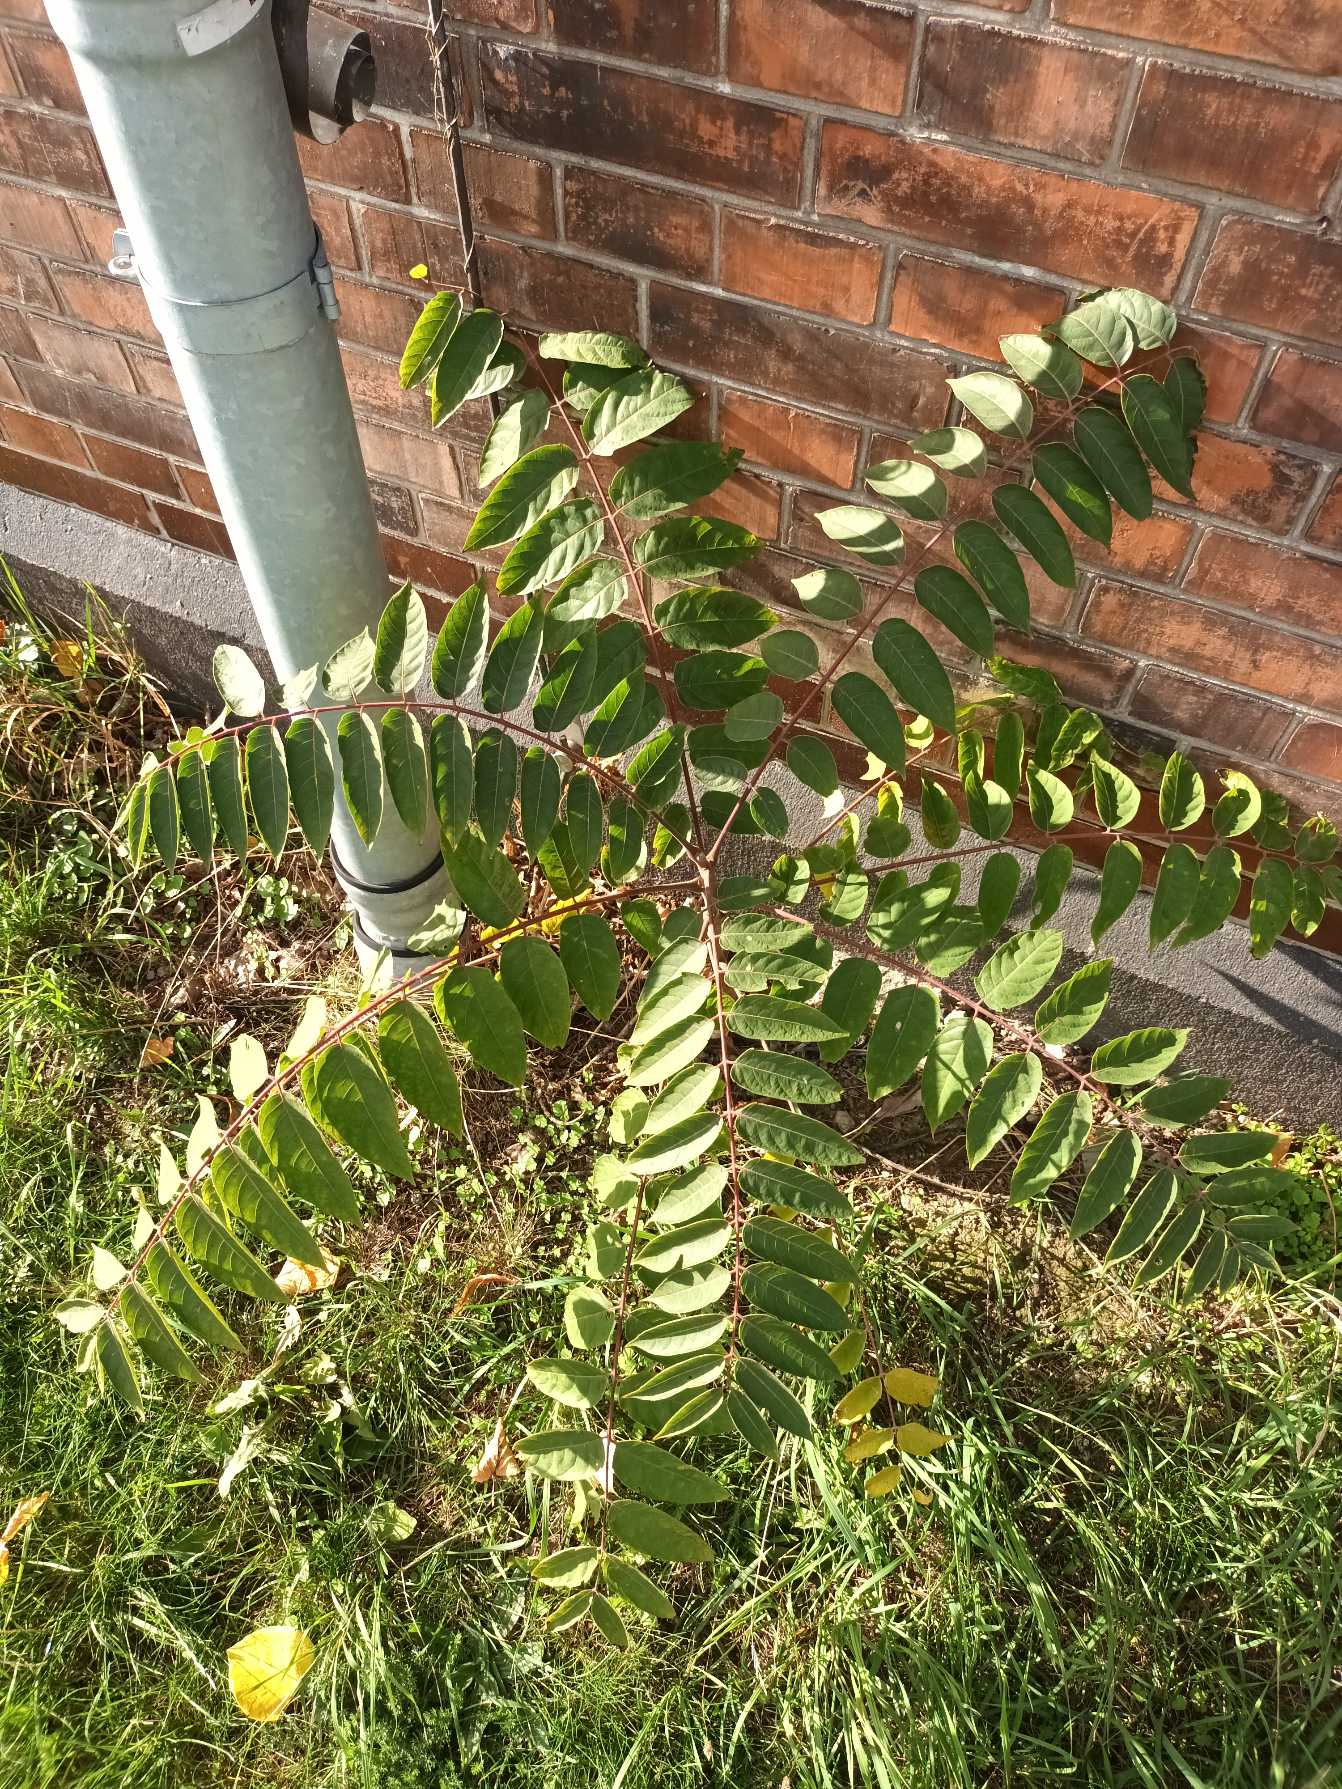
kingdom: Plantae
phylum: Tracheophyta
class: Magnoliopsida
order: Sapindales
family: Simaroubaceae
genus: Ailanthus
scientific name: Ailanthus altissima
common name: Skyrækker
